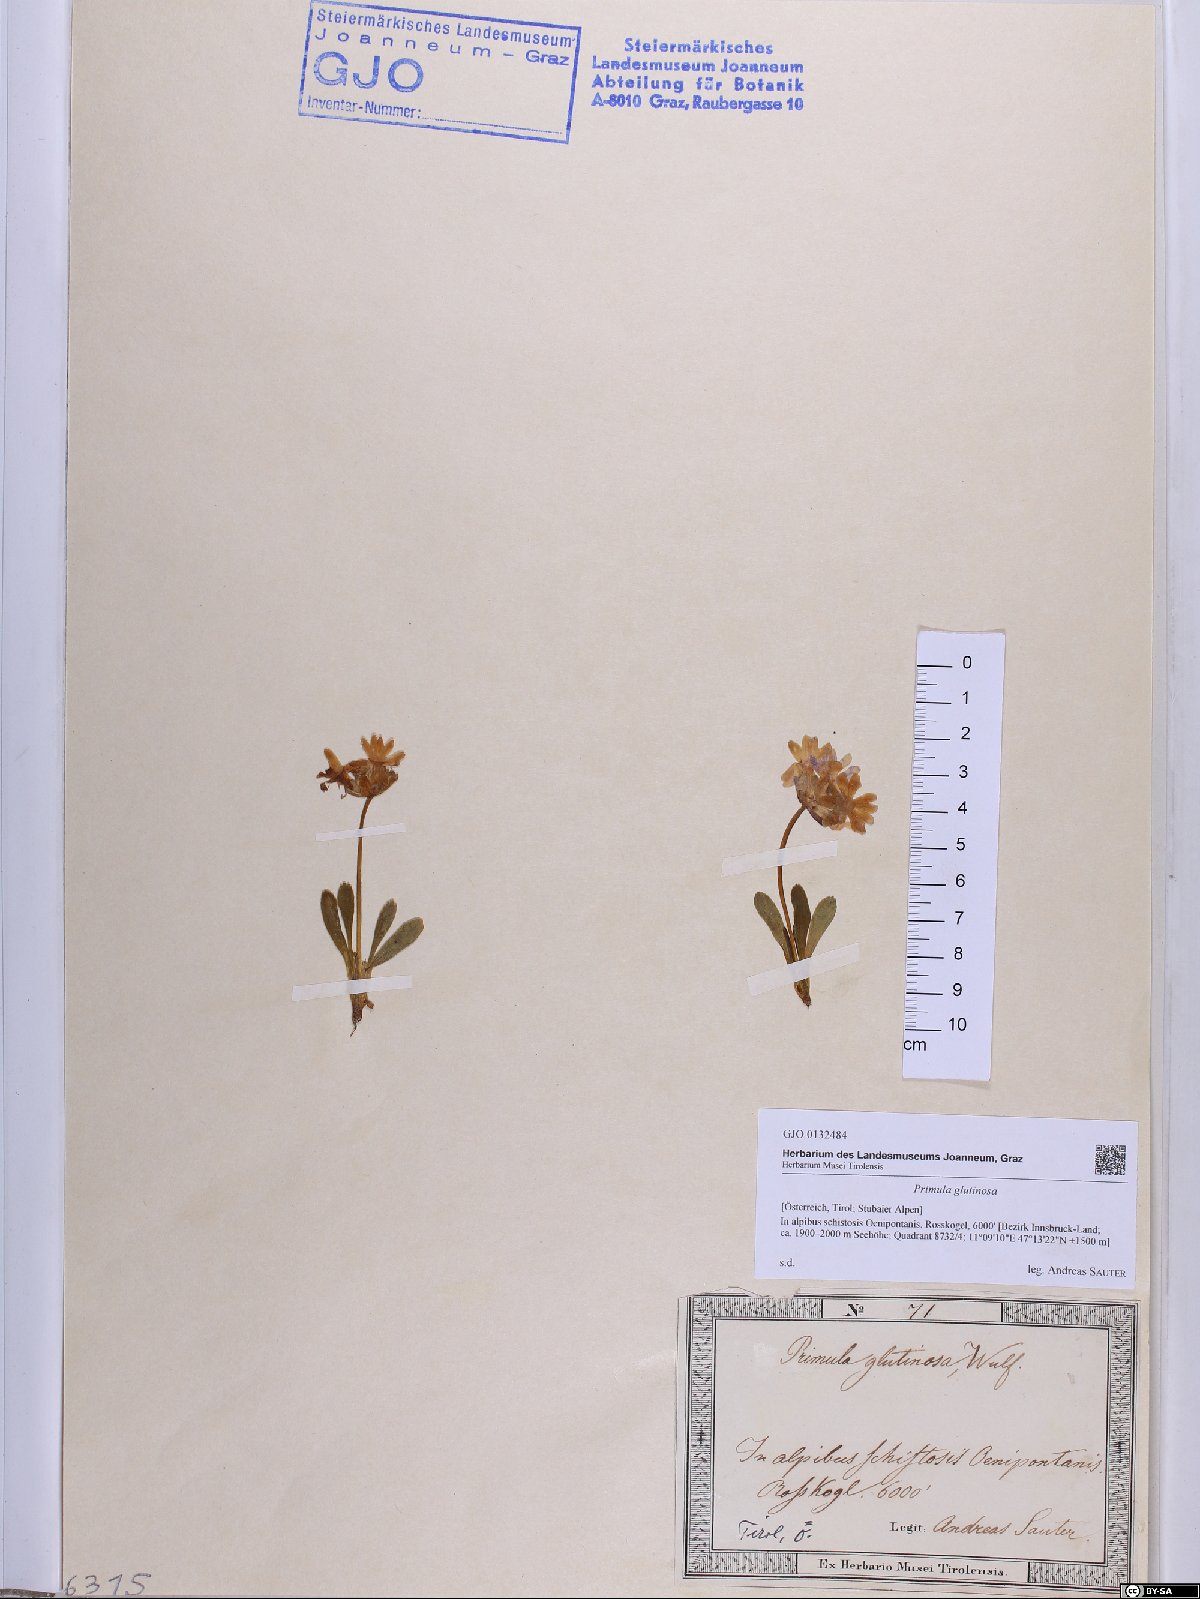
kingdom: Plantae
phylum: Tracheophyta
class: Magnoliopsida
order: Ericales
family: Primulaceae
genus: Primula
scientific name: Primula glutinosa
